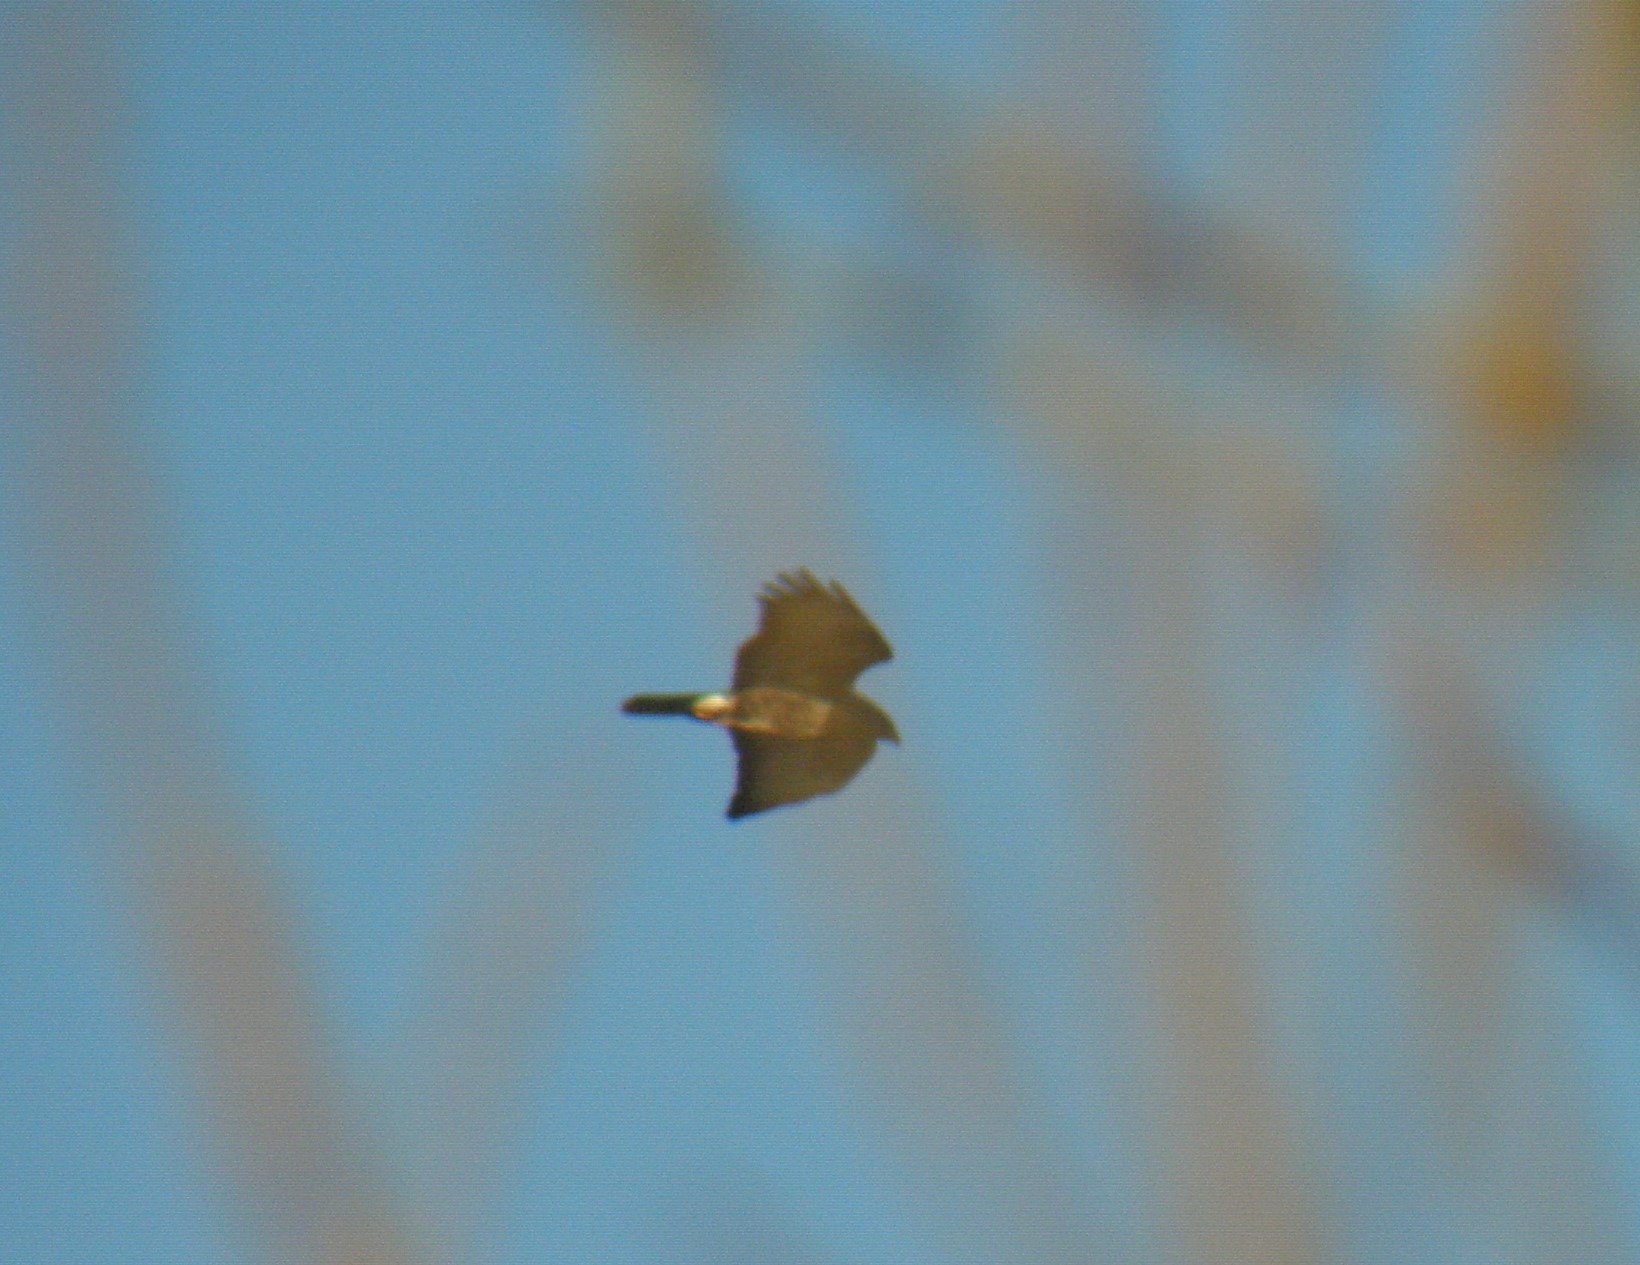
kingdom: Animalia
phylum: Chordata
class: Aves
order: Accipitriformes
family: Accipitridae
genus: Buteo
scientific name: Buteo buteo
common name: Musvåge
